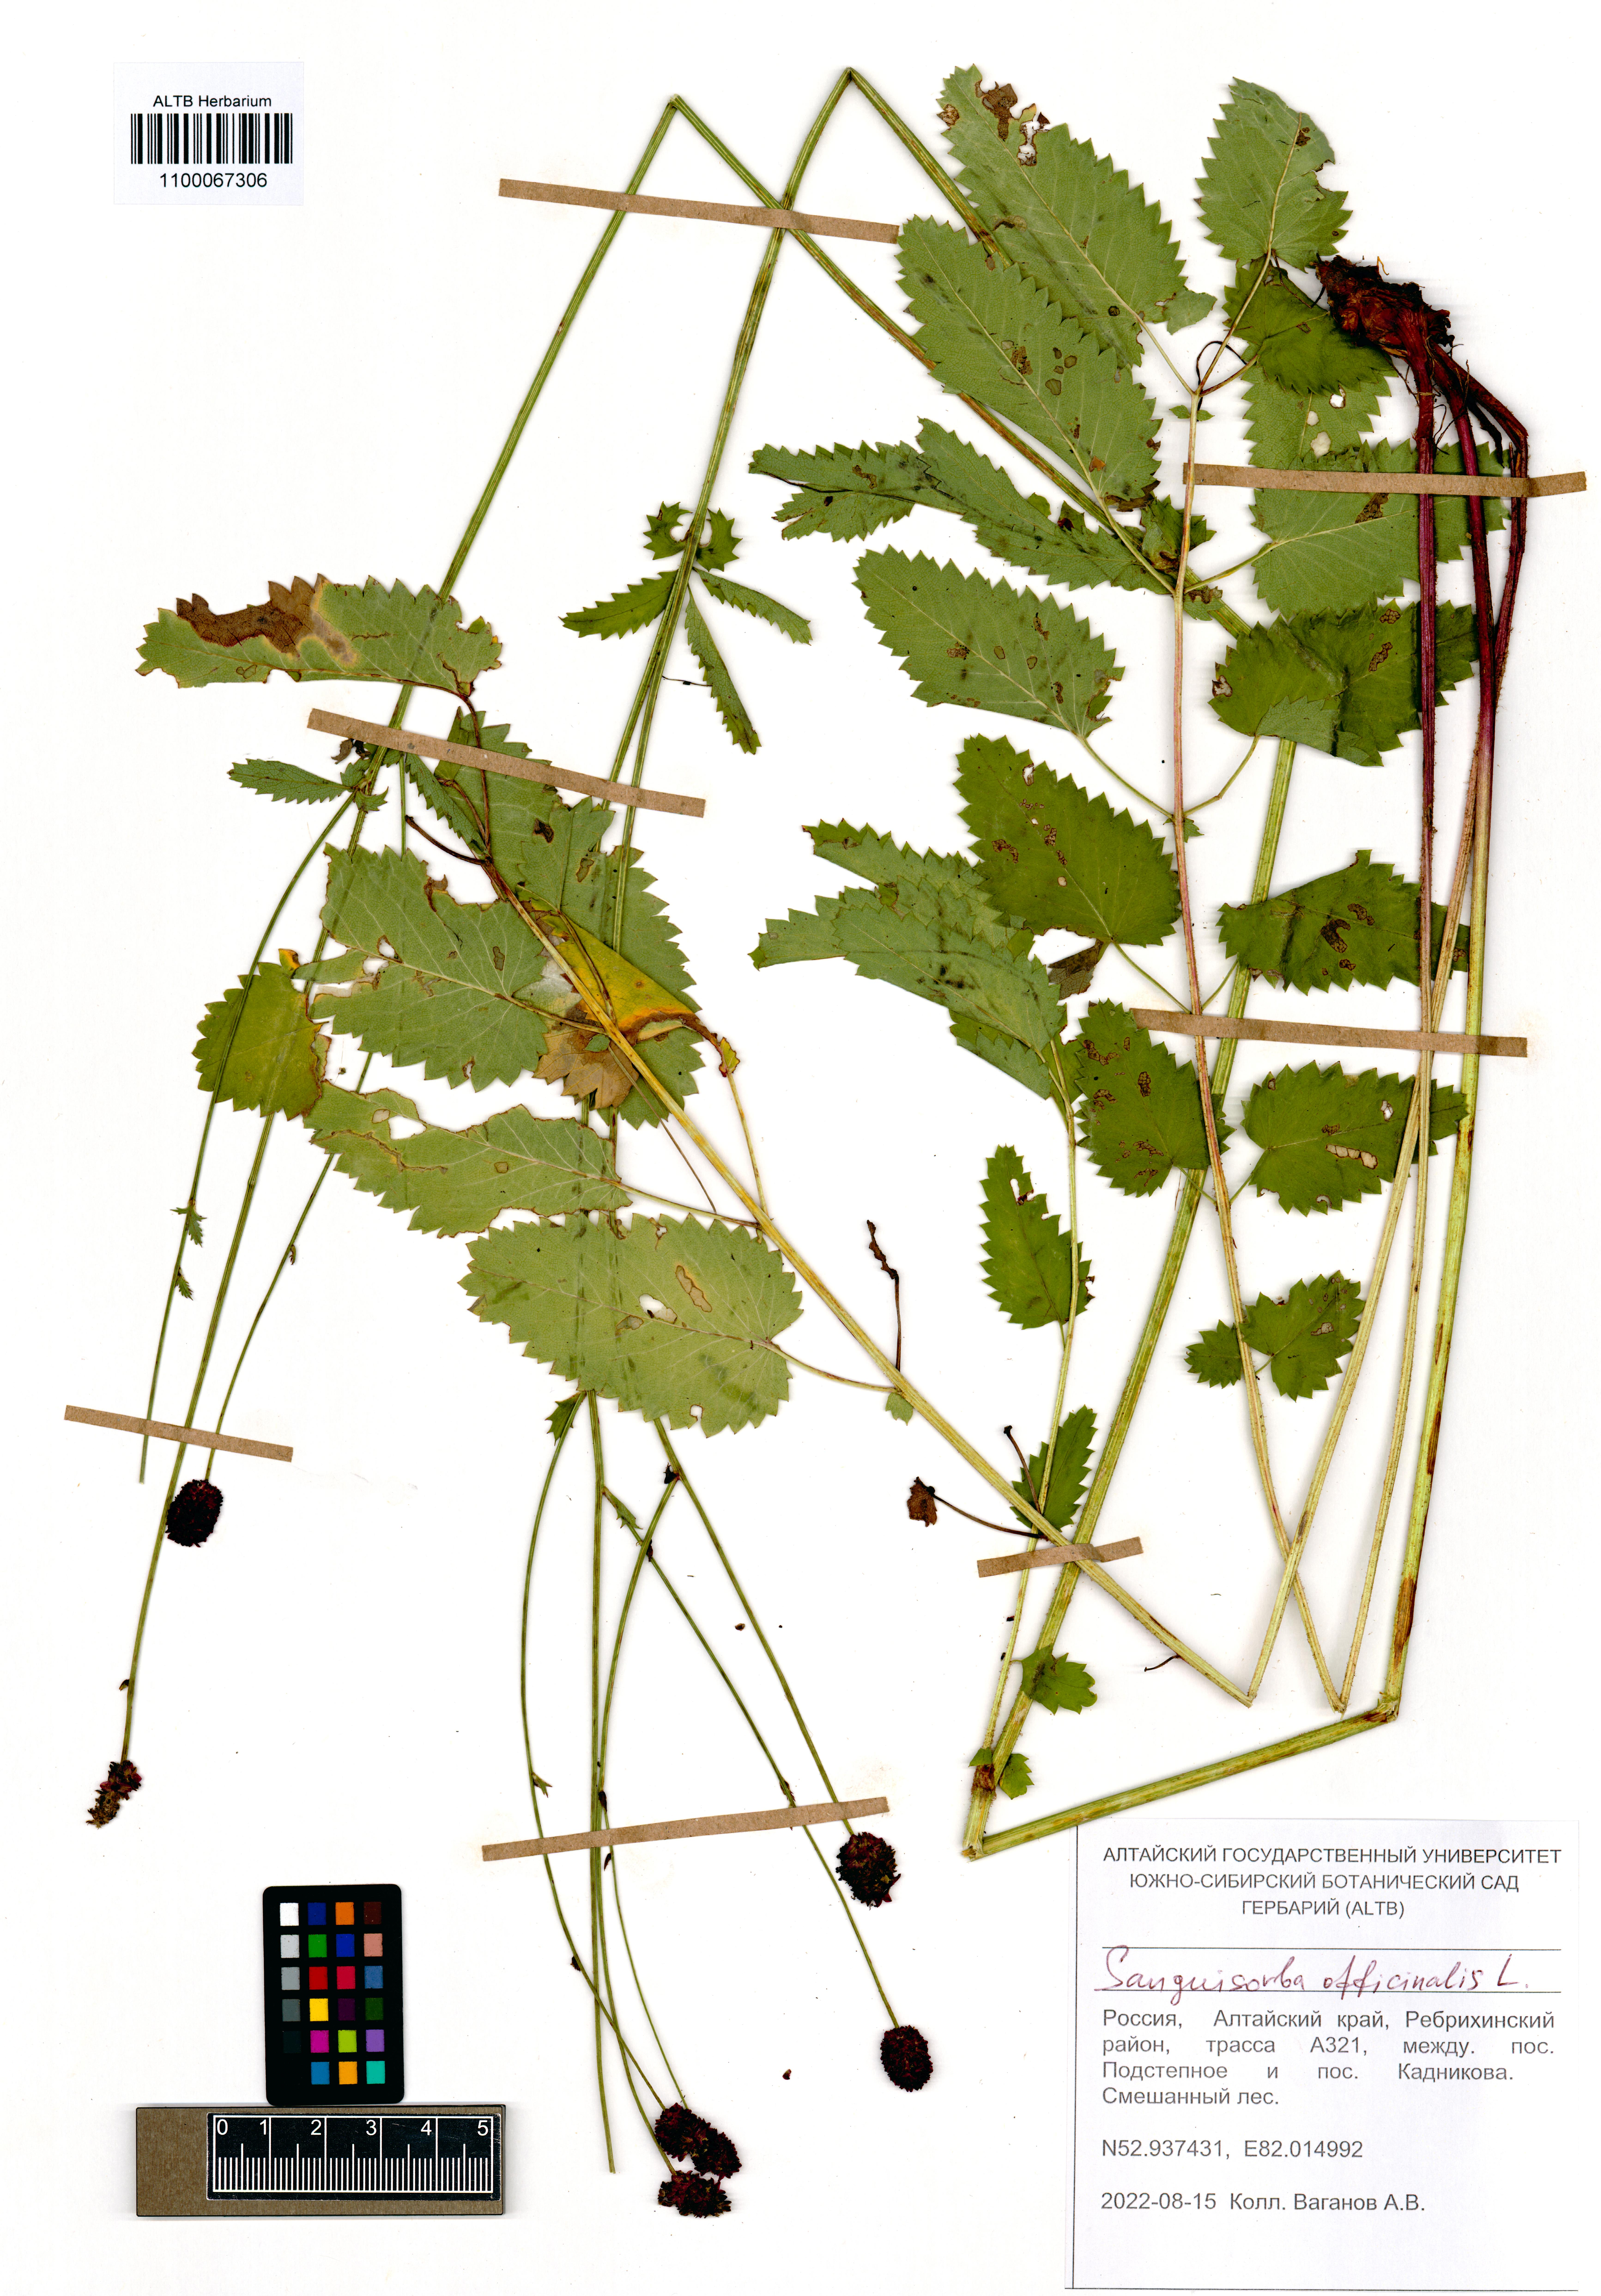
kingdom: Plantae
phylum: Tracheophyta
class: Magnoliopsida
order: Rosales
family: Rosaceae
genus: Sanguisorba
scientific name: Sanguisorba officinalis
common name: Great burnet
